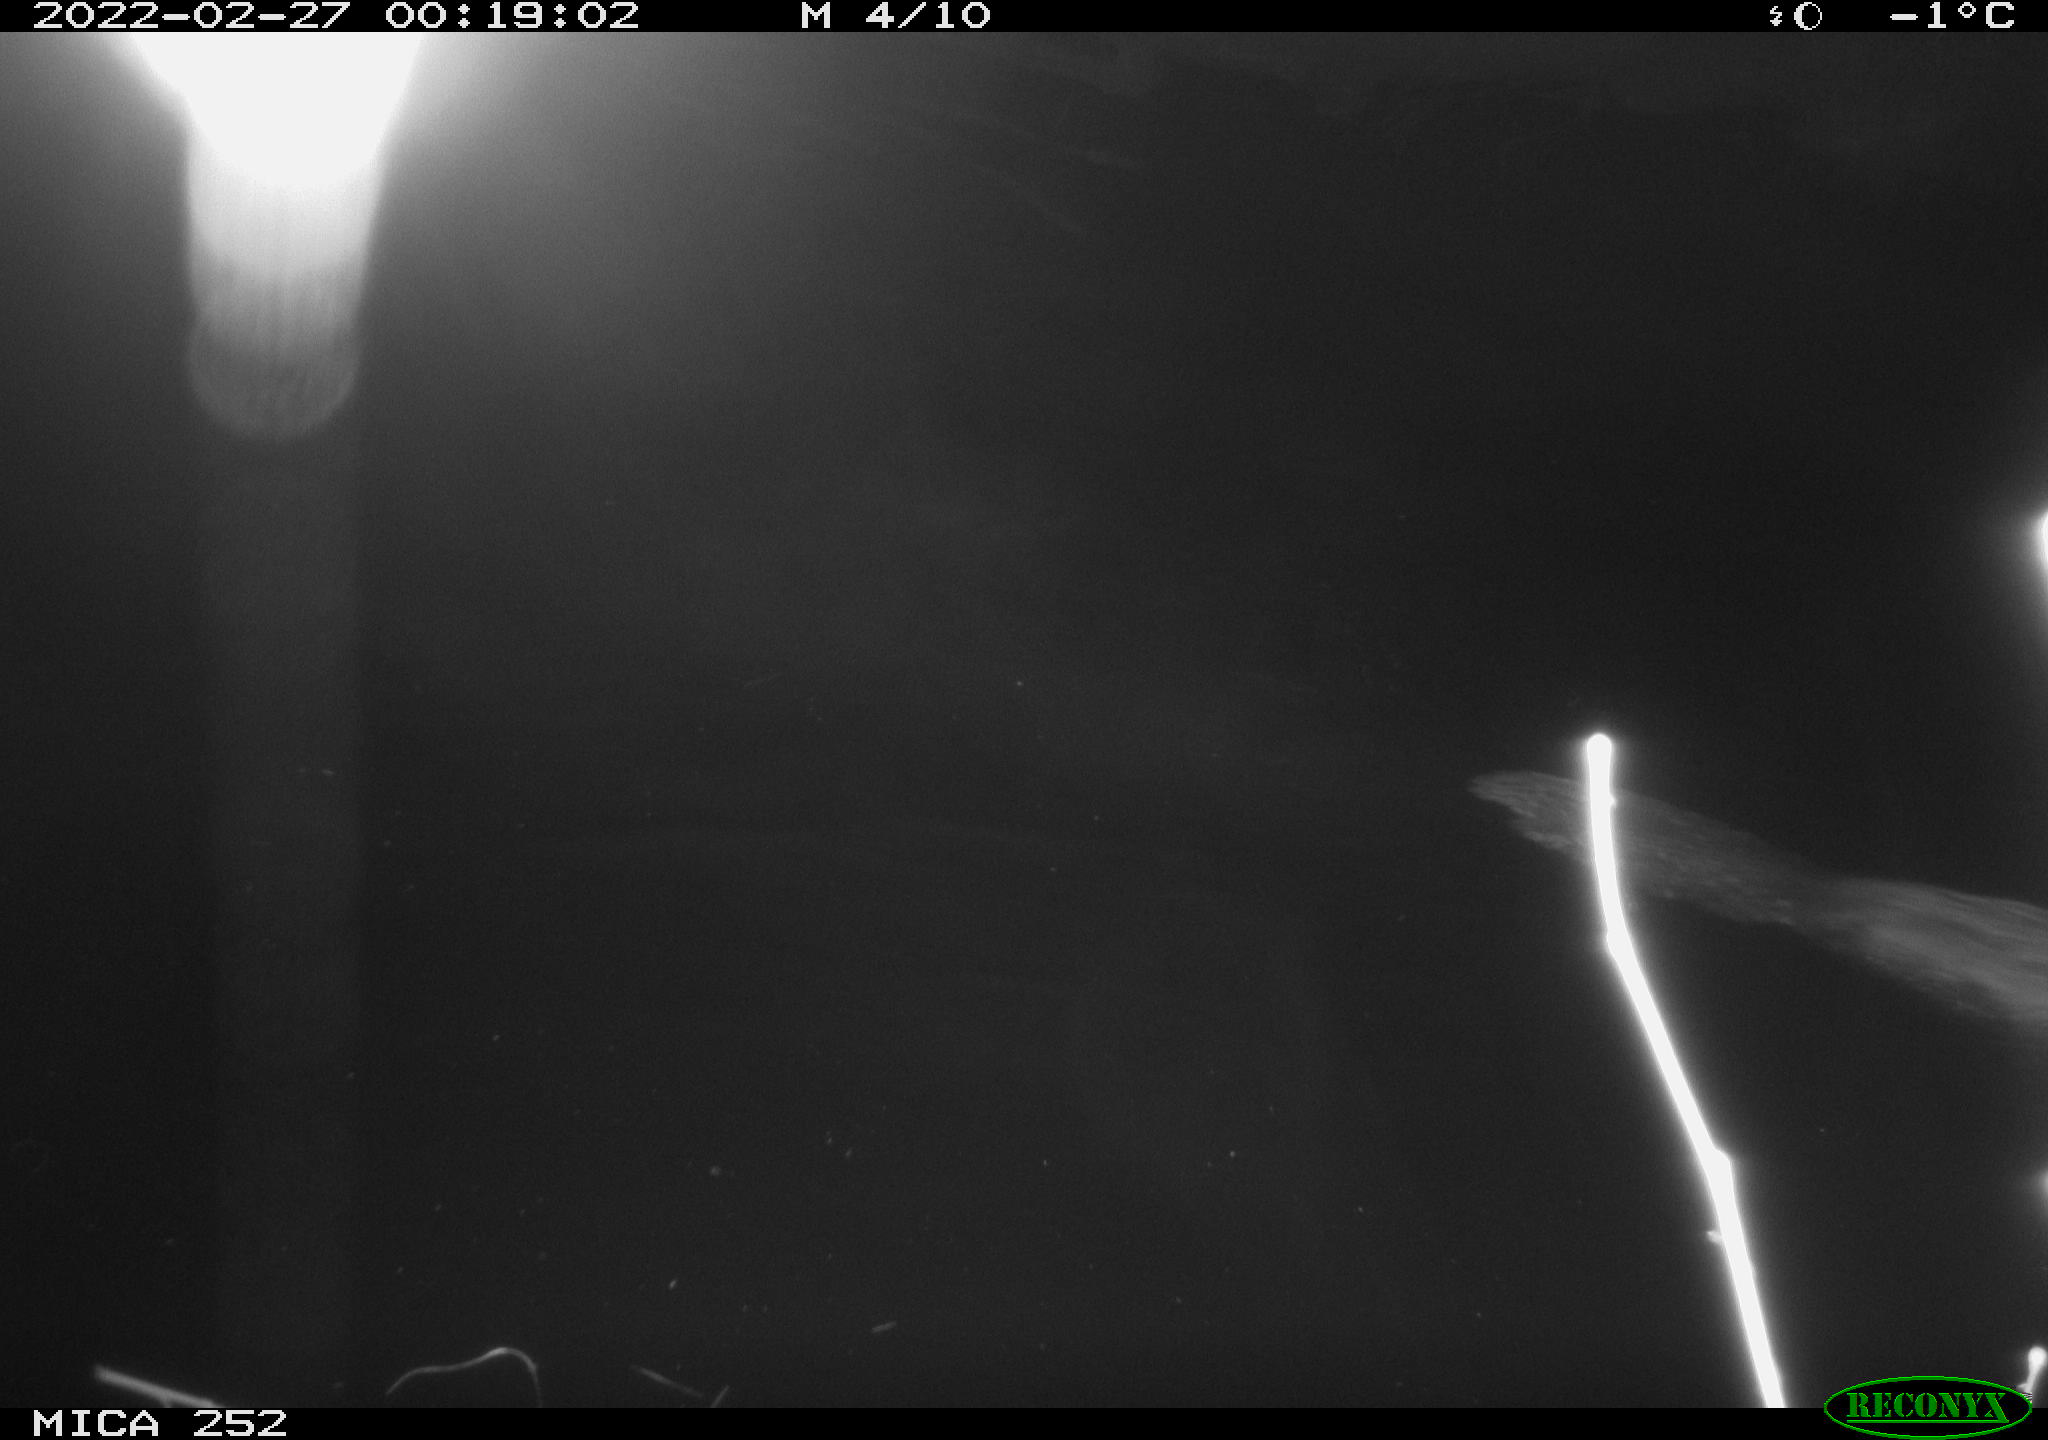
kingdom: Animalia
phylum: Chordata
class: Mammalia
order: Rodentia
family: Castoridae
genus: Castor
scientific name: Castor fiber
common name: Eurasian beaver
